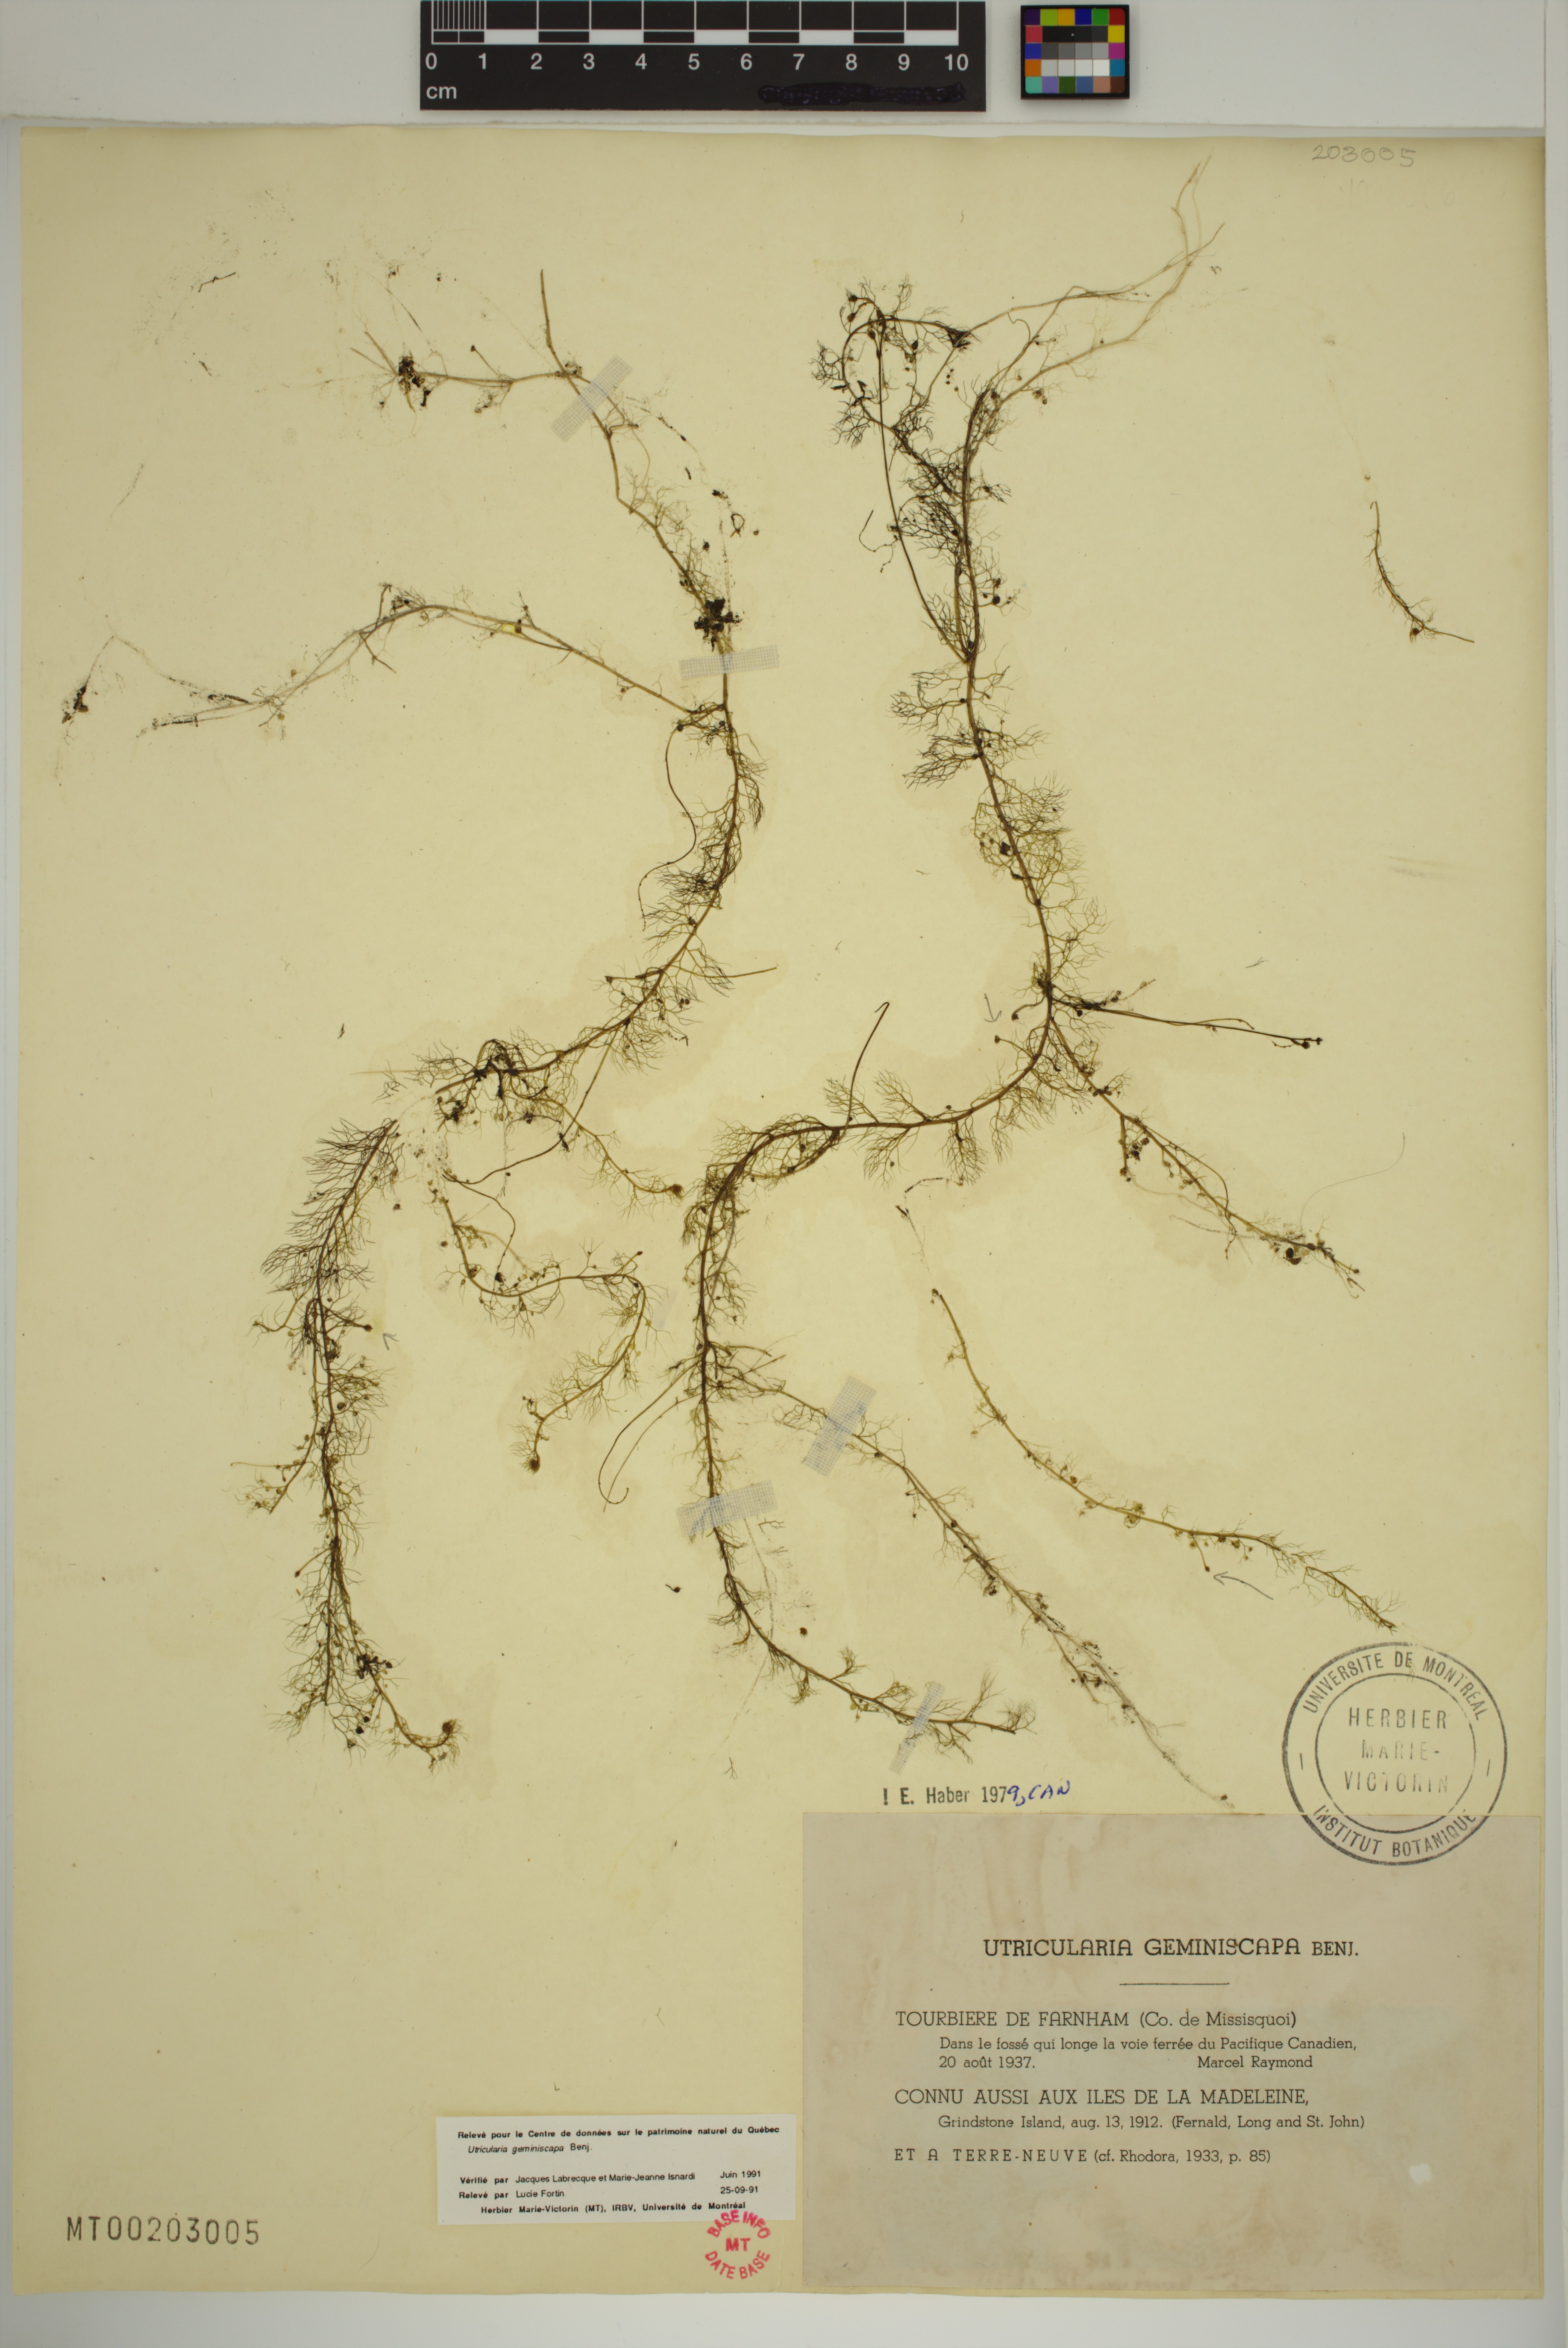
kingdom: Plantae
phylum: Tracheophyta
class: Magnoliopsida
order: Lamiales
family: Lentibulariaceae
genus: Utricularia
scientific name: Utricularia geminiscapa
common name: Hidden-fruit bladderwort
